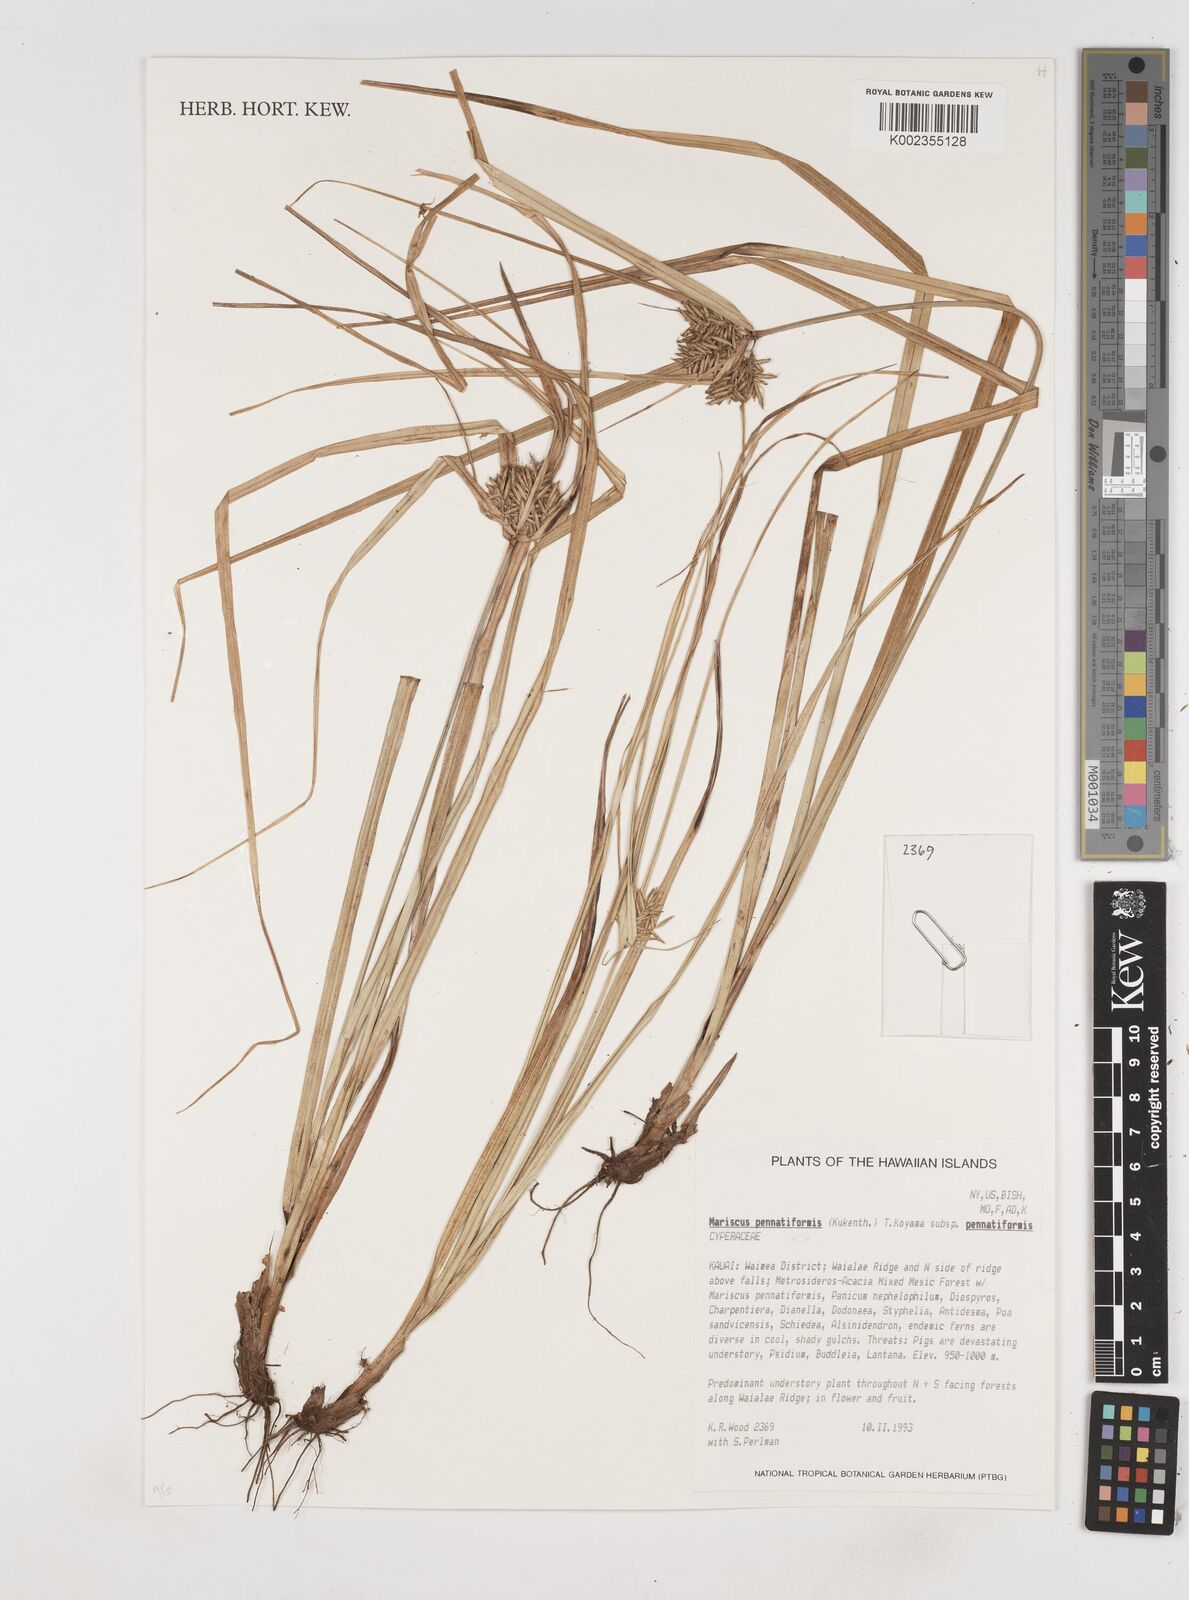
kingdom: Plantae
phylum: Tracheophyta
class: Liliopsida
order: Poales
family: Cyperaceae
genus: Cyperus
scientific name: Cyperus pennatiformis
